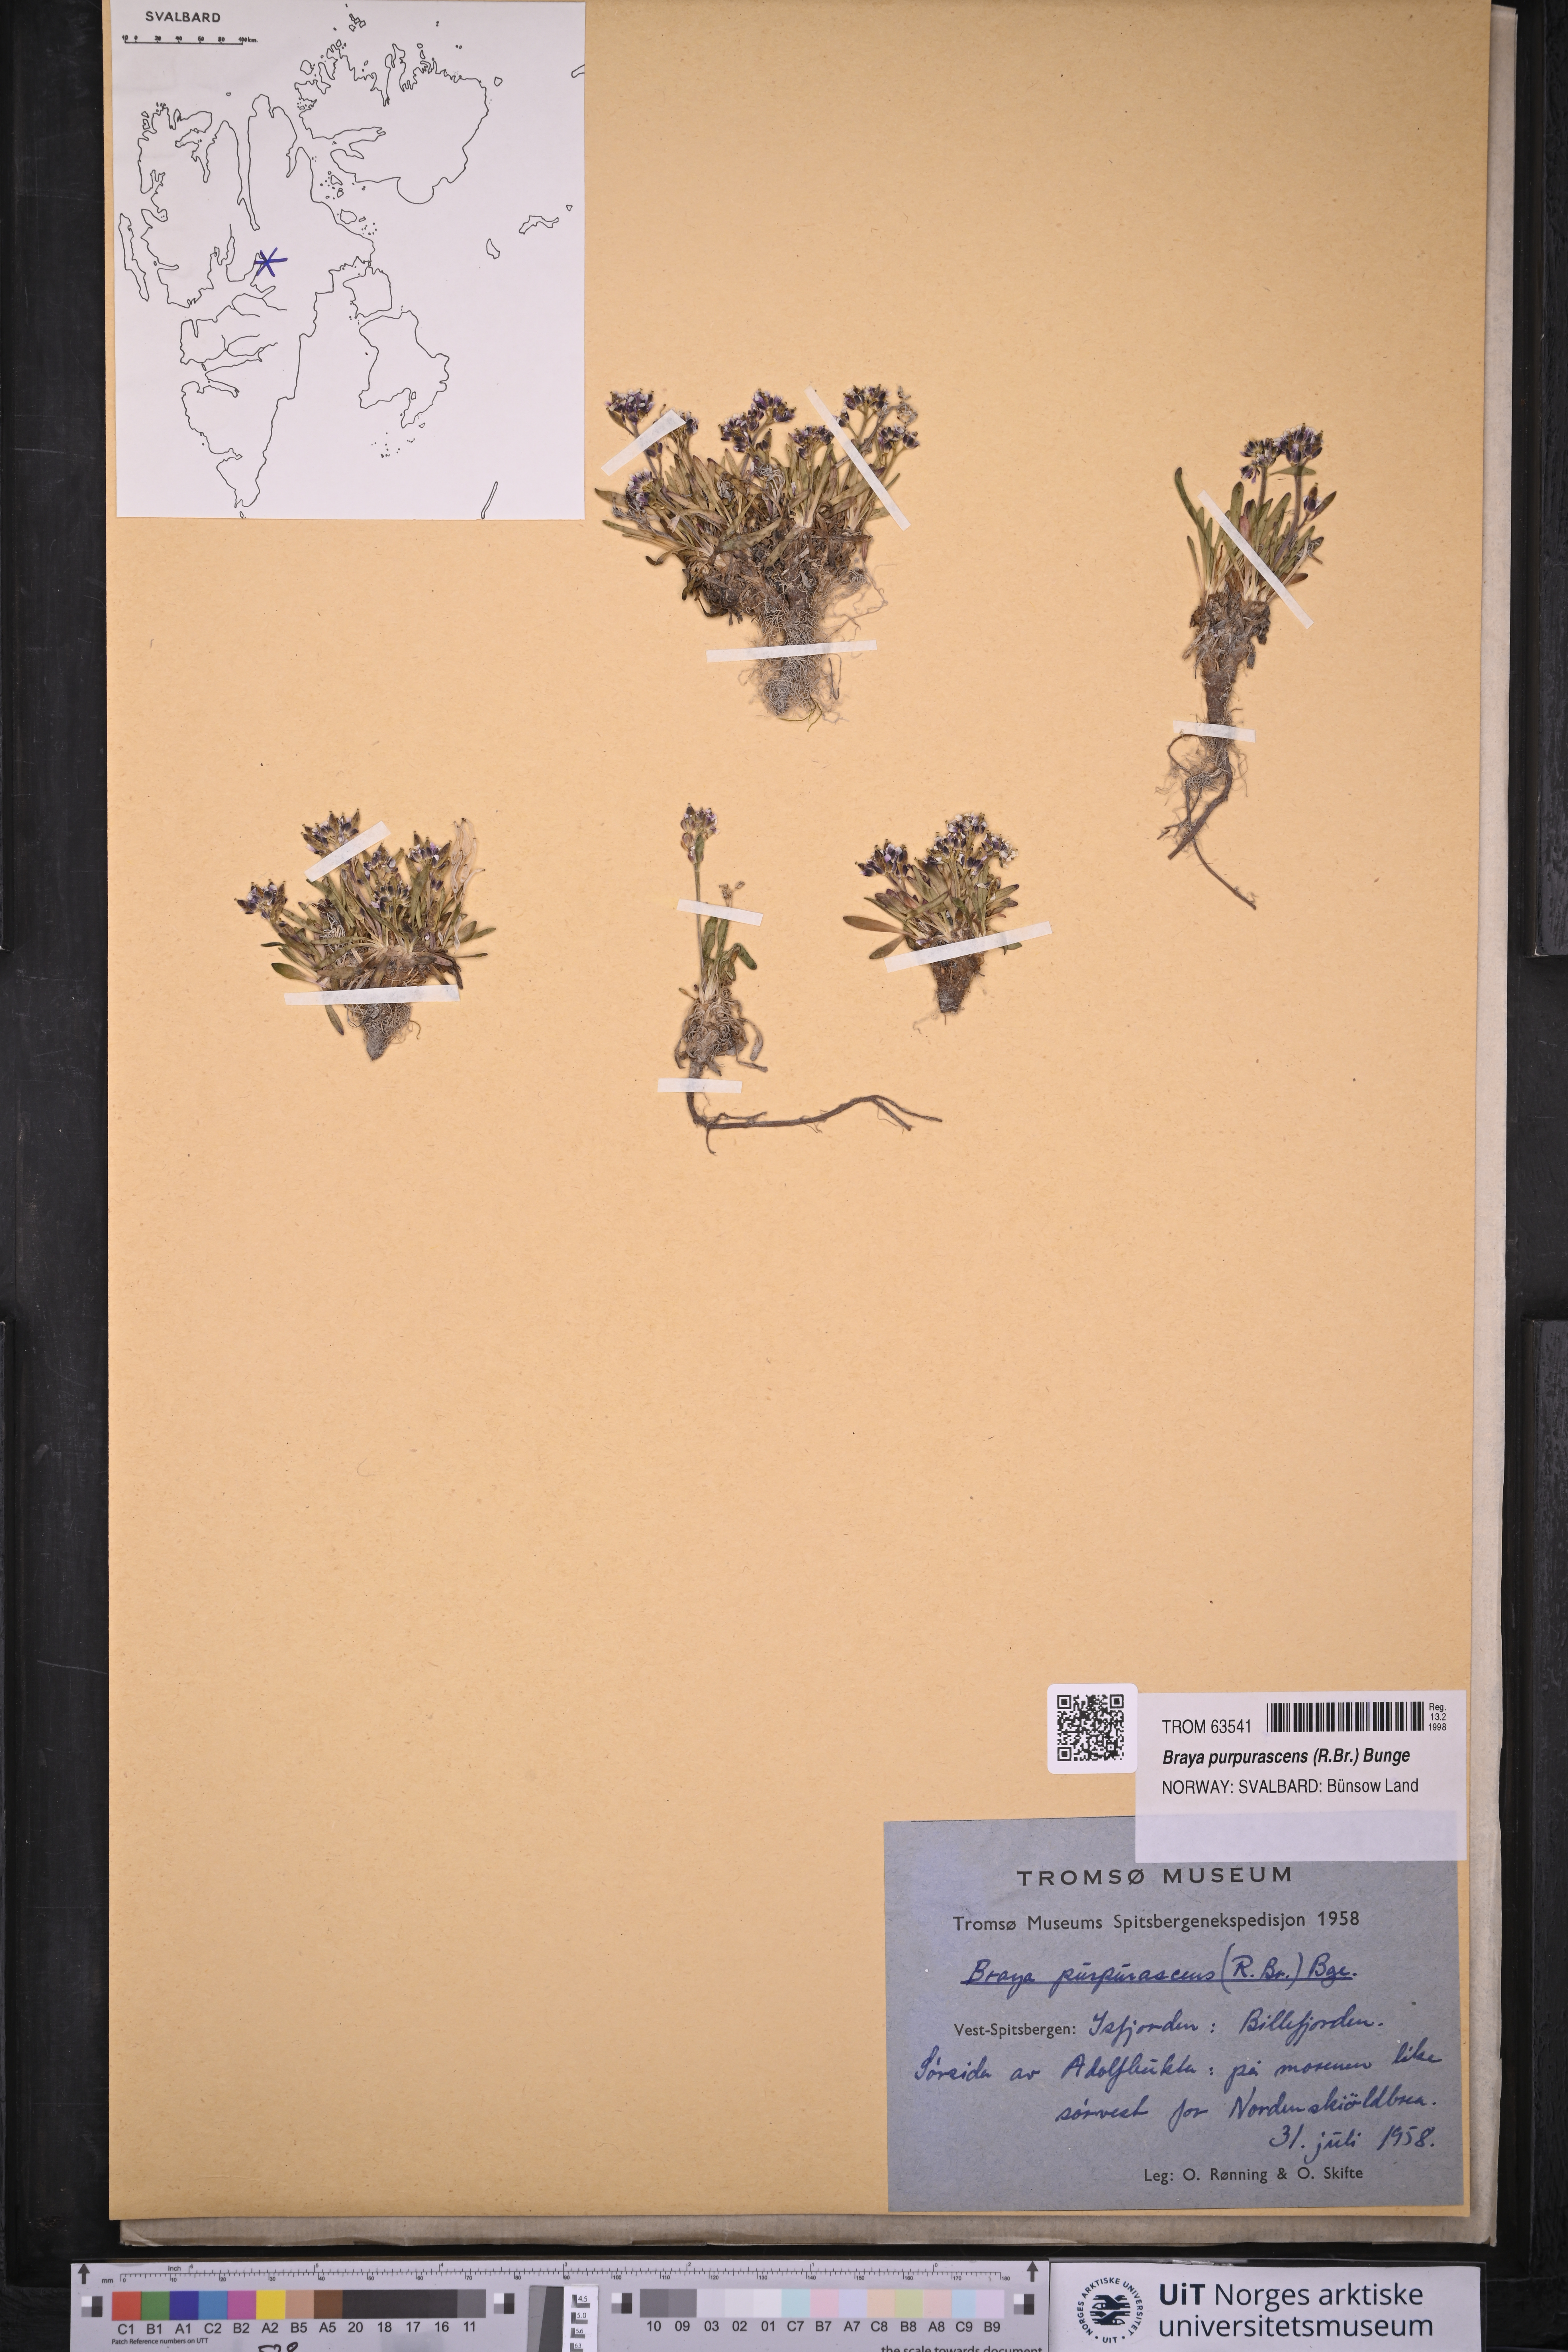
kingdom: Plantae
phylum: Tracheophyta
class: Magnoliopsida
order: Brassicales
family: Brassicaceae
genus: Braya
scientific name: Braya purpurascens
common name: Alpine braya
